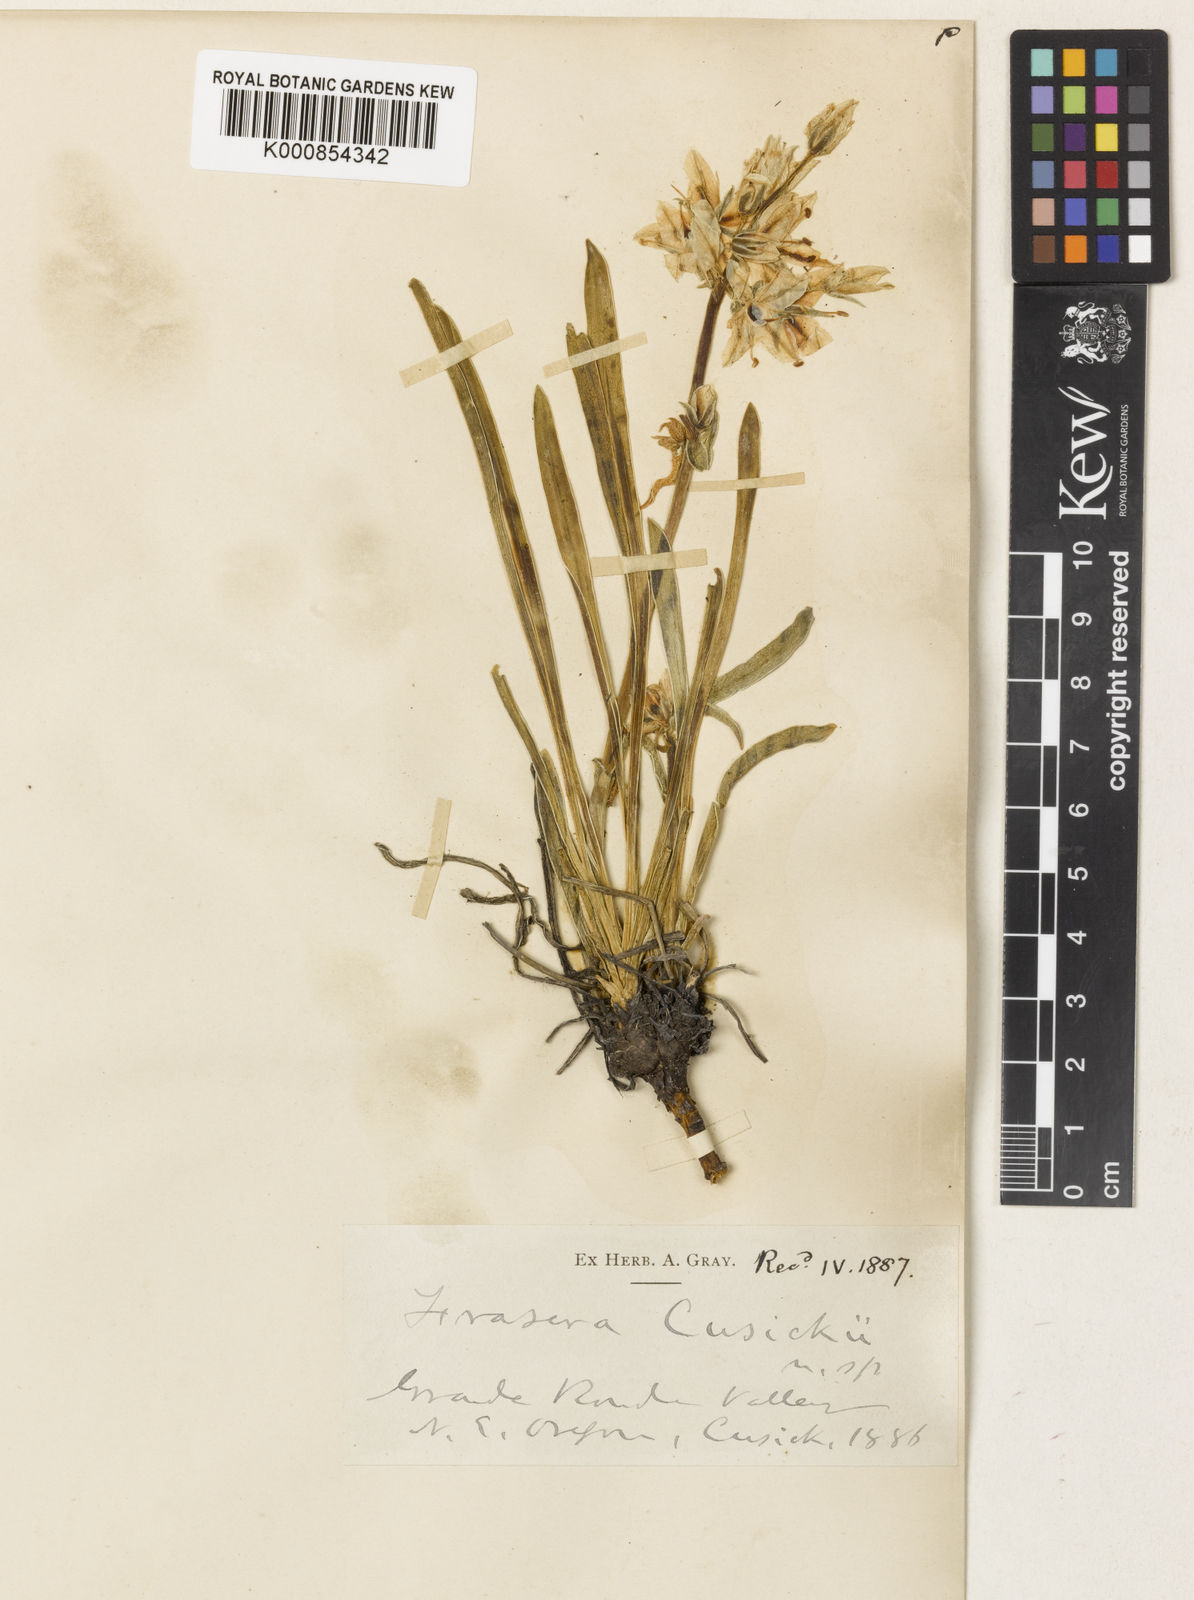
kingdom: Plantae
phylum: Tracheophyta
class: Magnoliopsida
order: Gentianales
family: Gentianaceae
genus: Frasera
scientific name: Frasera albicaulis
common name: Cusick's frasera
